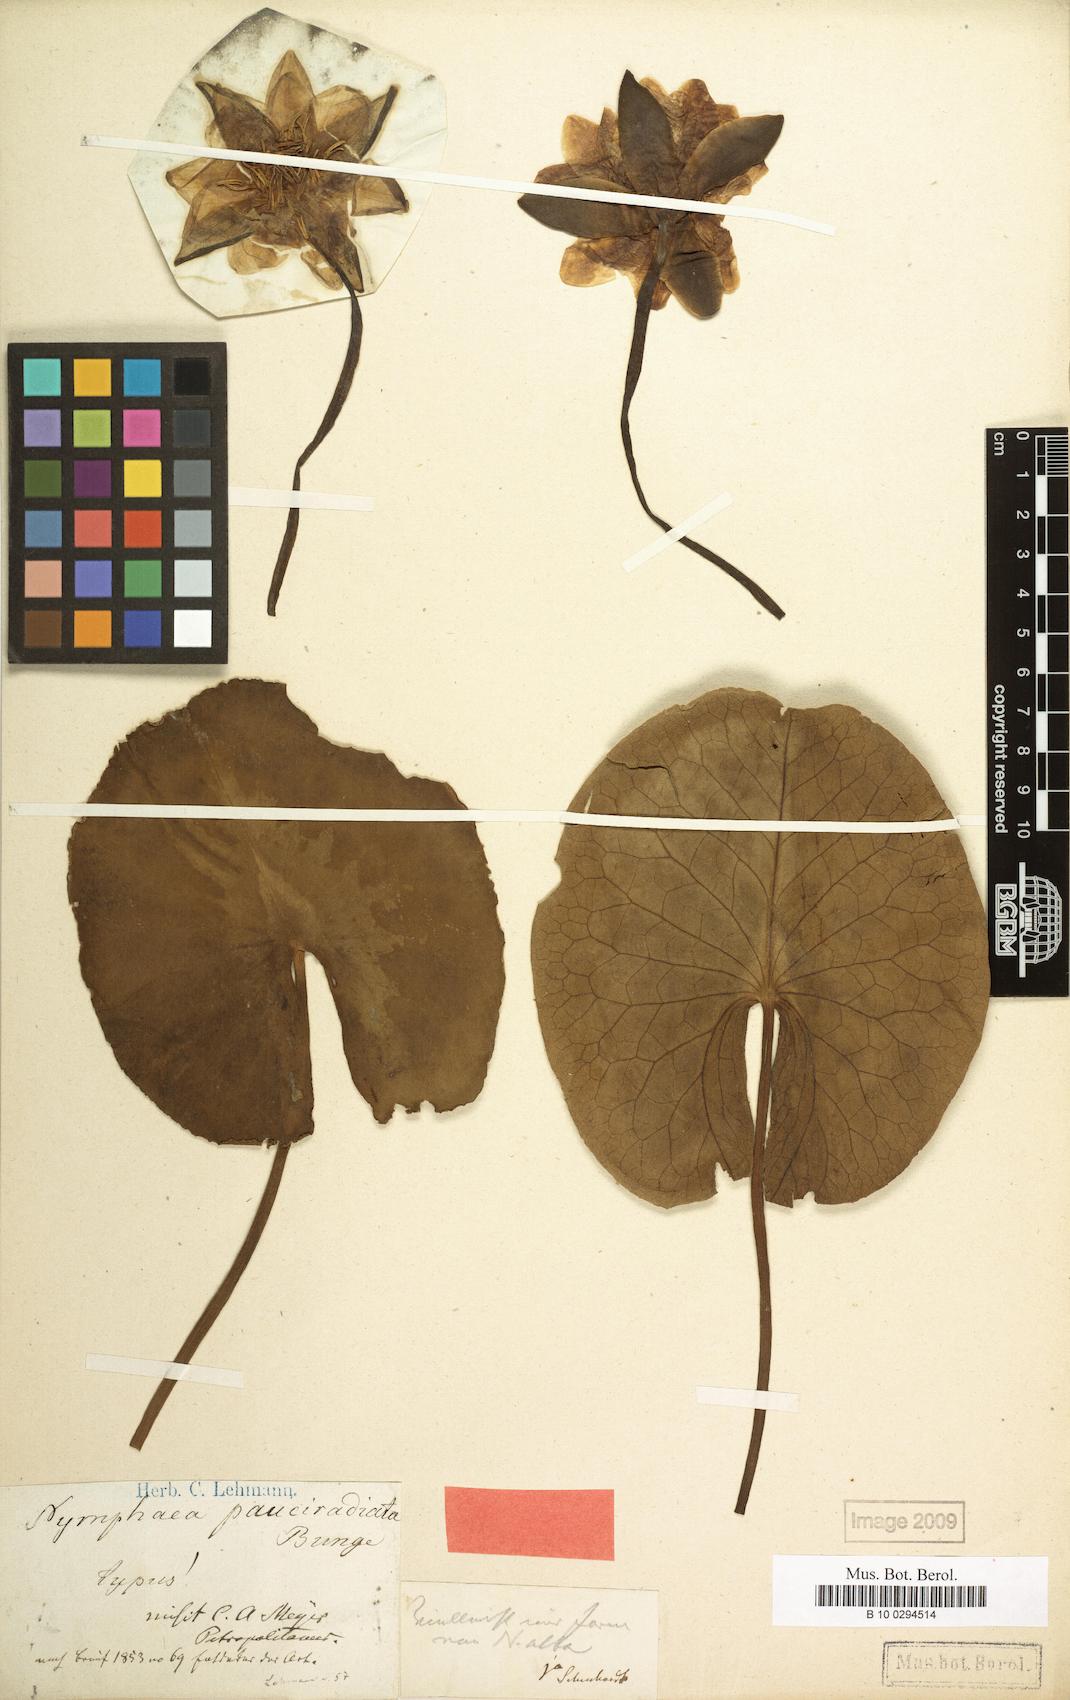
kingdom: Plantae
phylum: Tracheophyta
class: Magnoliopsida
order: Nymphaeales
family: Nymphaeaceae
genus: Nymphaea
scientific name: Nymphaea candida
